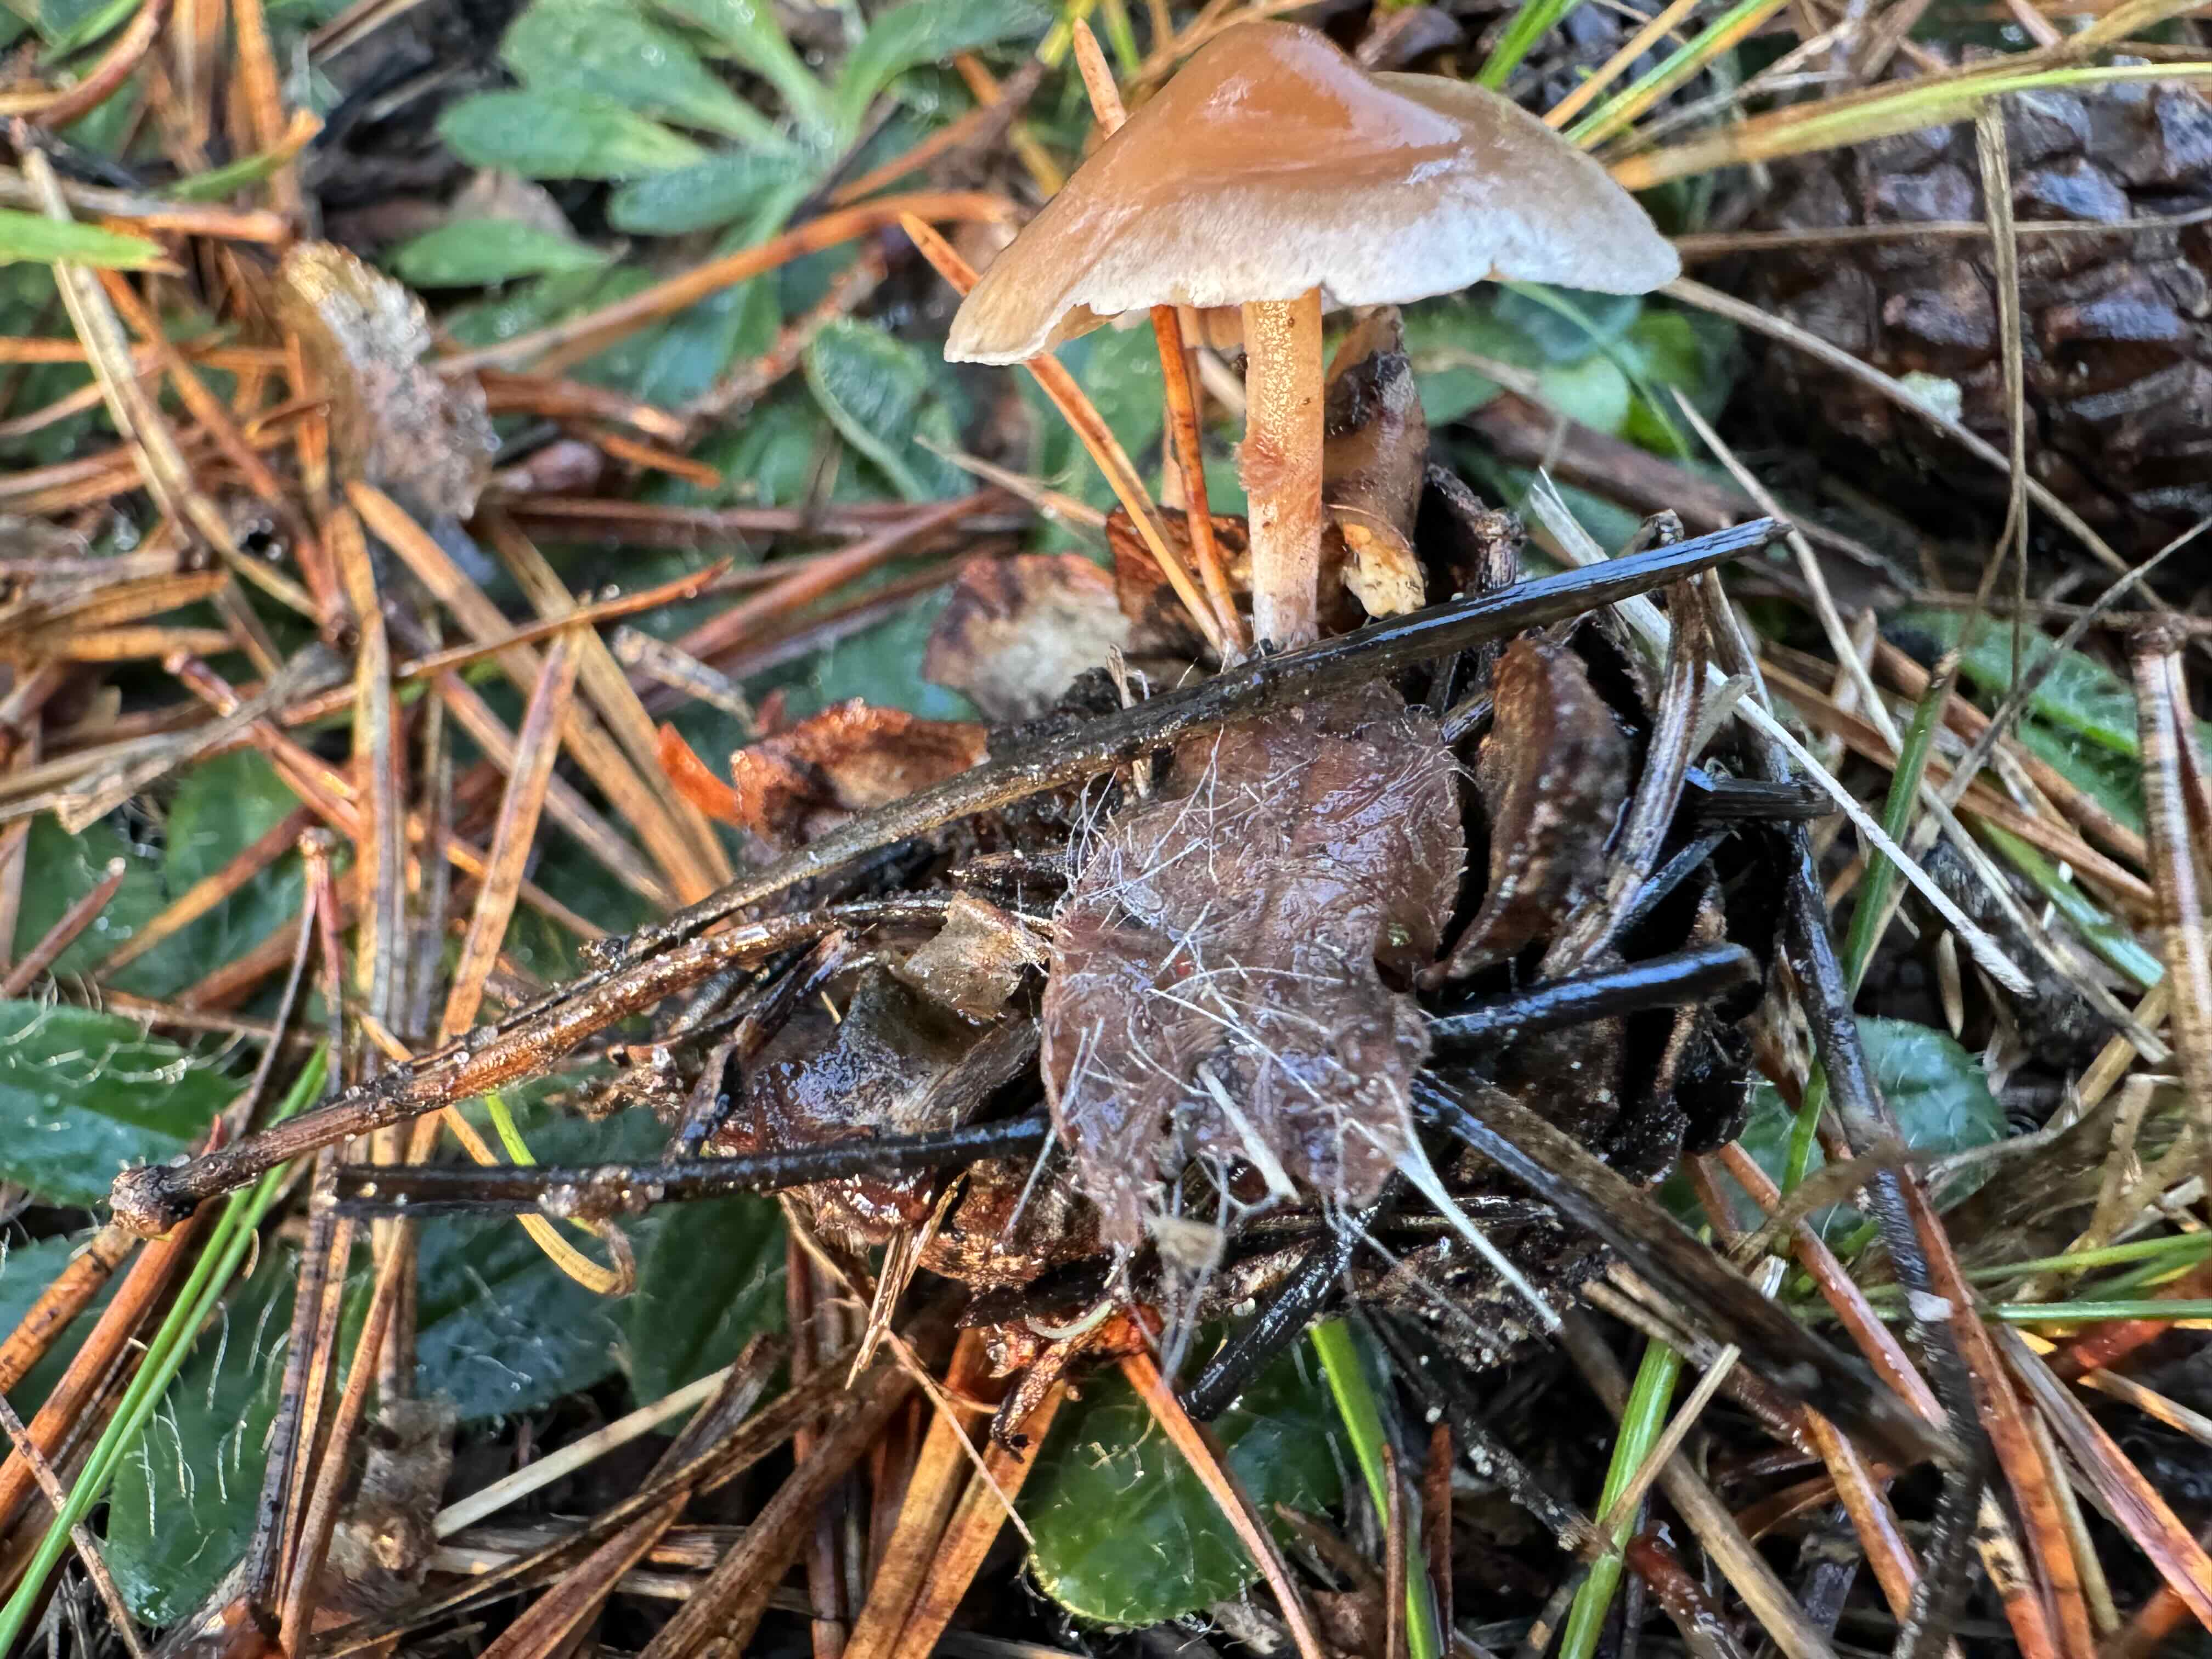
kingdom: Fungi
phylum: Basidiomycota
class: Agaricomycetes
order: Agaricales
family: Marasmiaceae
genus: Baeospora
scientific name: Baeospora myosura
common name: koglebruskhat
